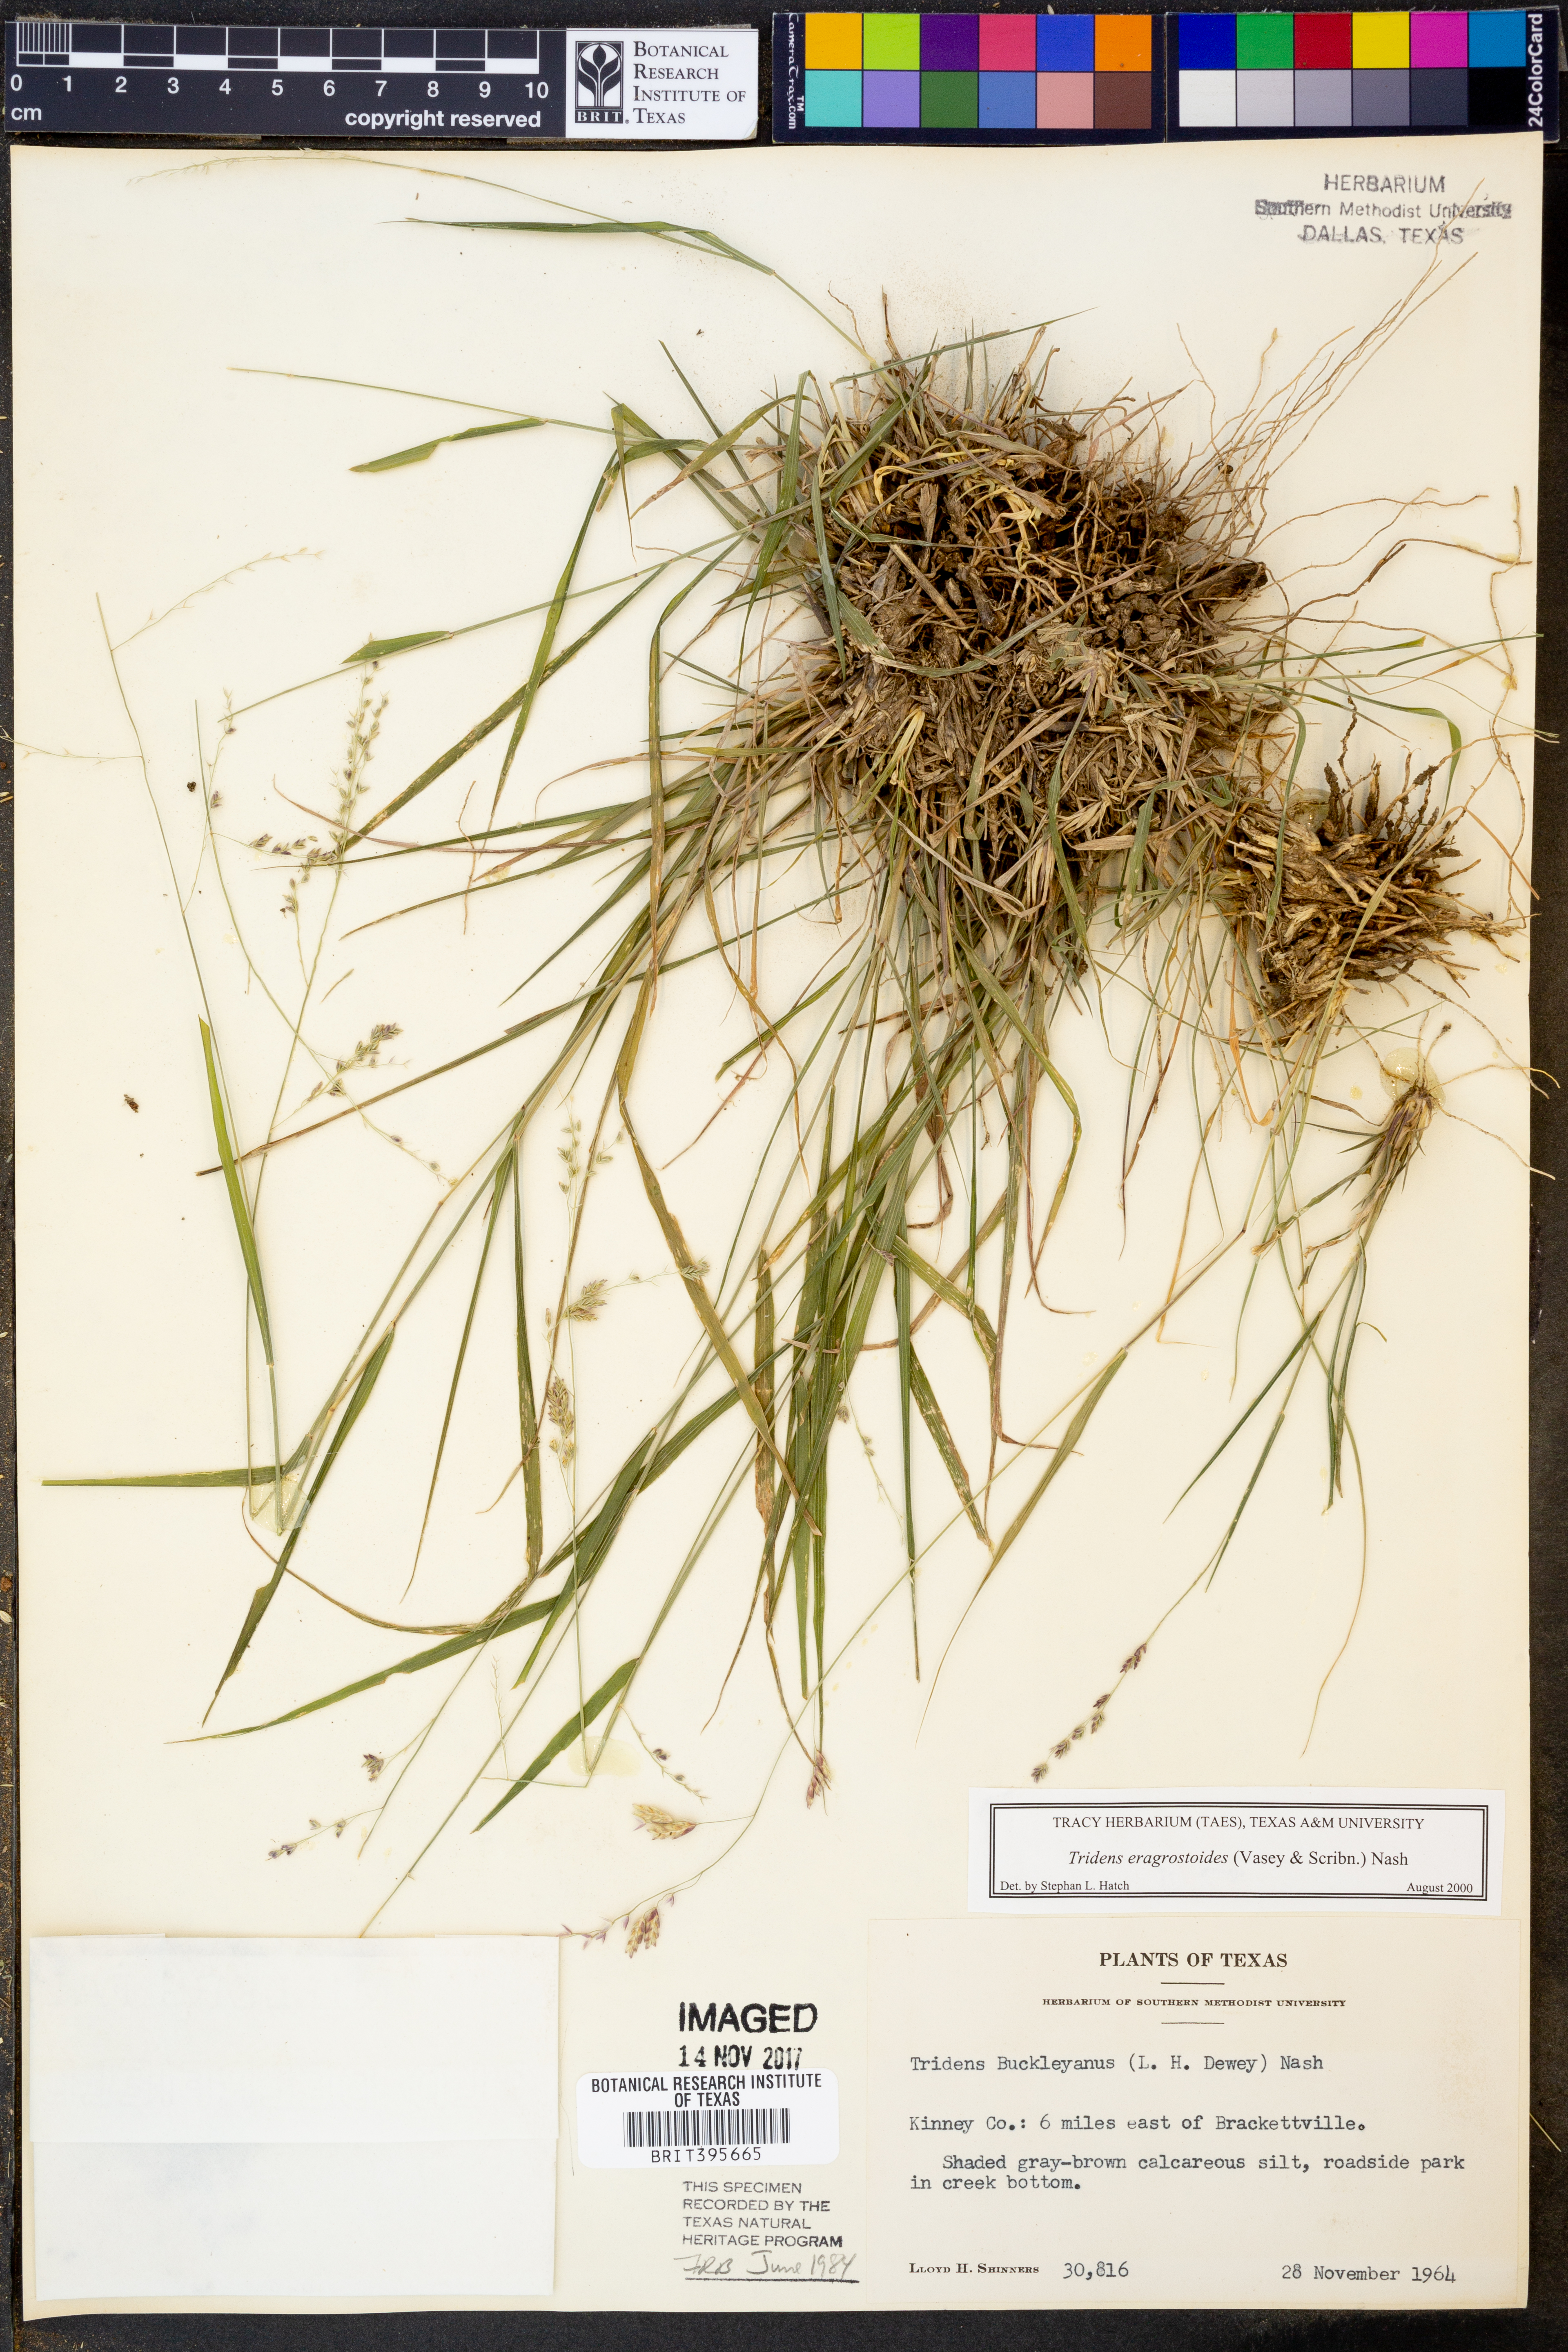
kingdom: Plantae
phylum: Tracheophyta
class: Liliopsida
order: Poales
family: Poaceae
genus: Triplasiella
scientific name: Triplasiella eragrostoides
